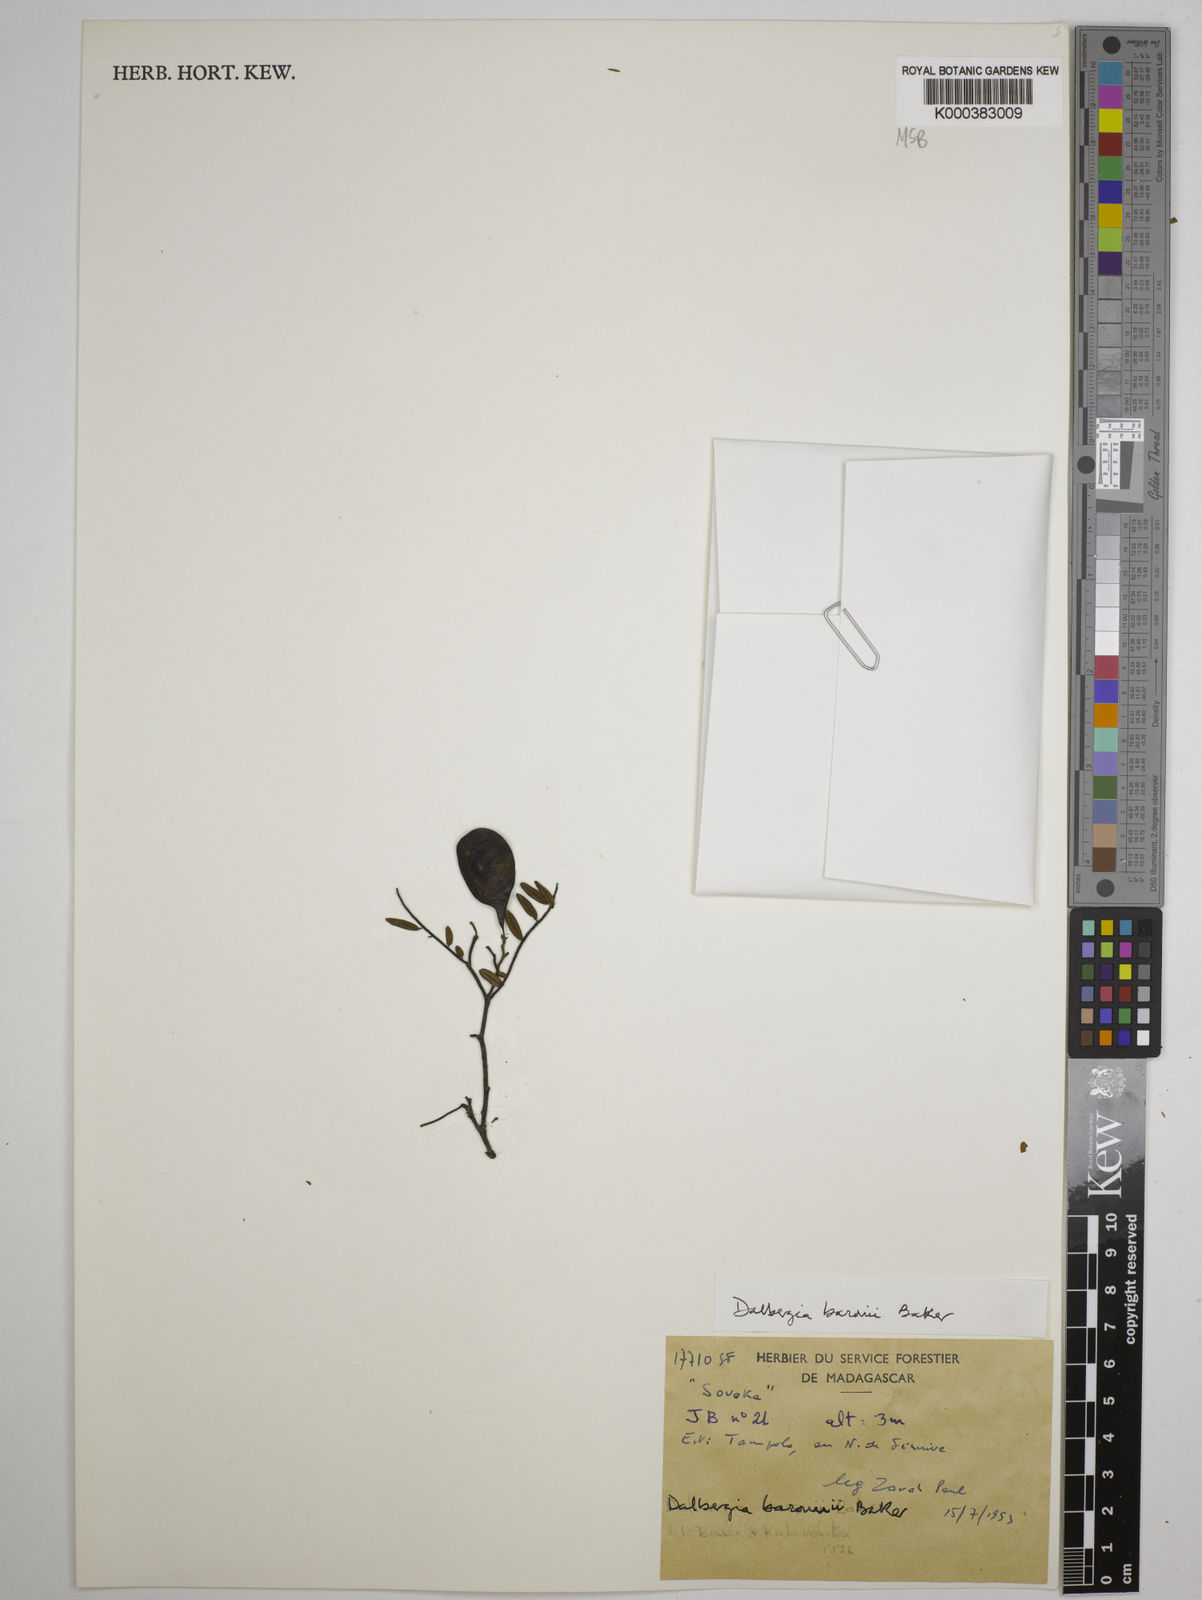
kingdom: Plantae
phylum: Tracheophyta
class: Magnoliopsida
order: Fabales
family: Fabaceae
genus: Dalbergia
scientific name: Dalbergia baronii
